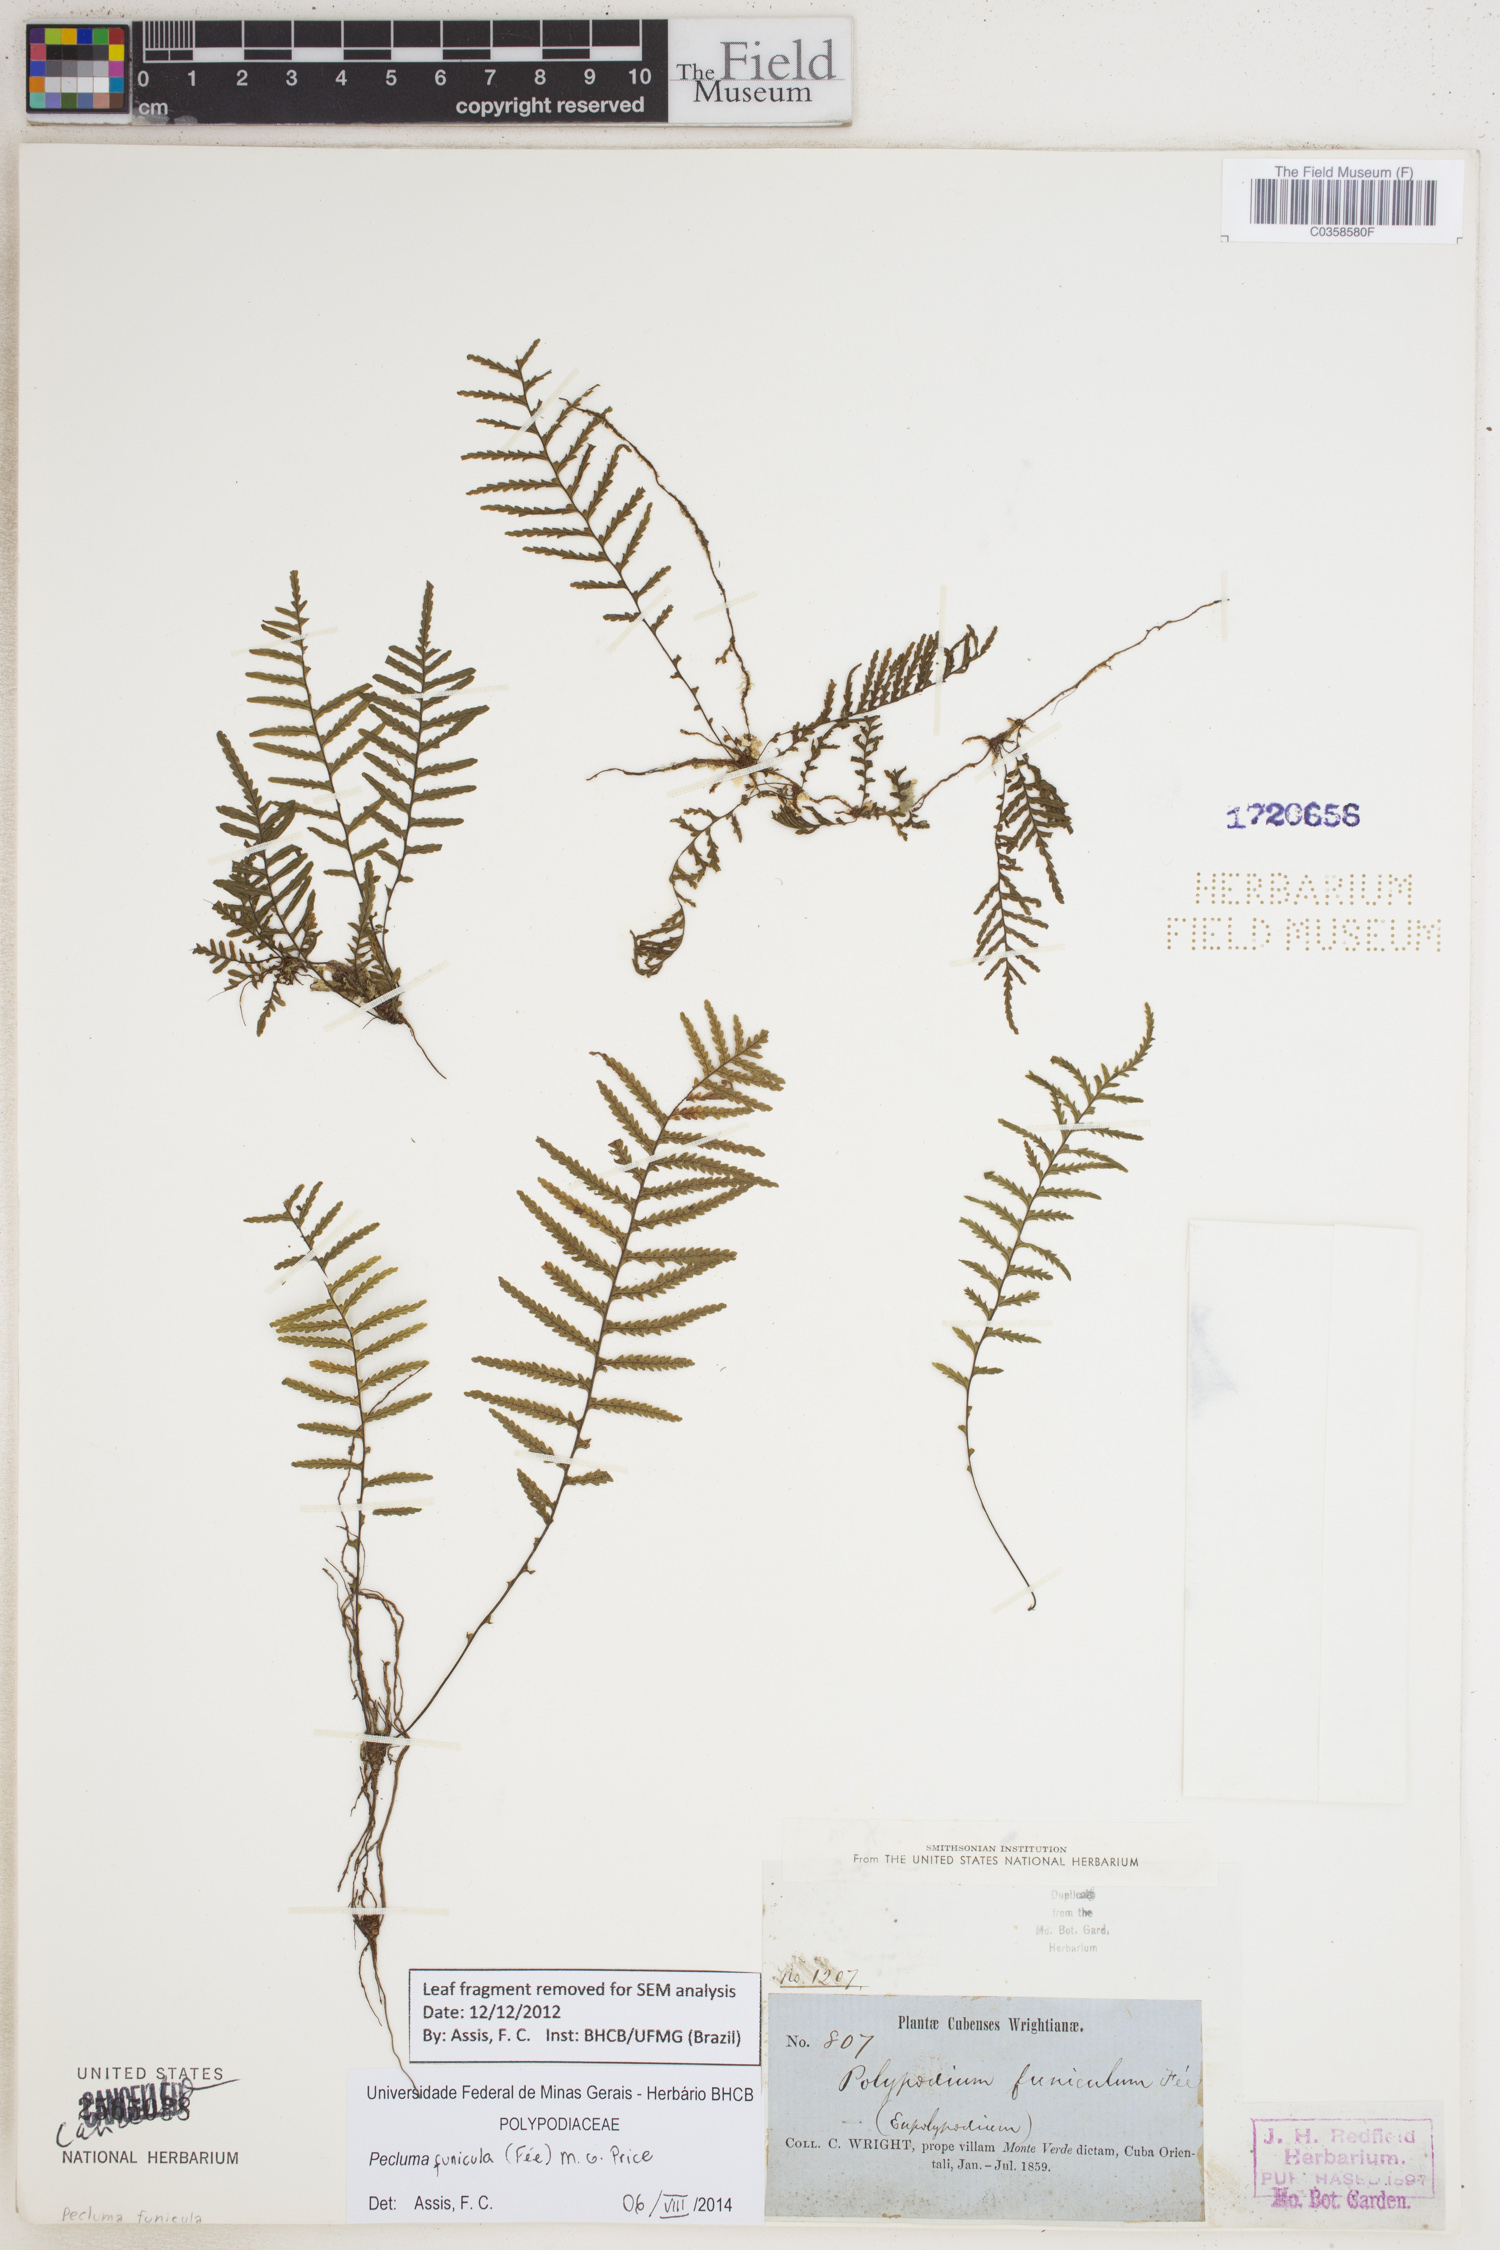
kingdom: Plantae
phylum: Tracheophyta
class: Polypodiopsida
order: Polypodiales
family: Polypodiaceae
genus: Pecluma
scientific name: Pecluma funicula
